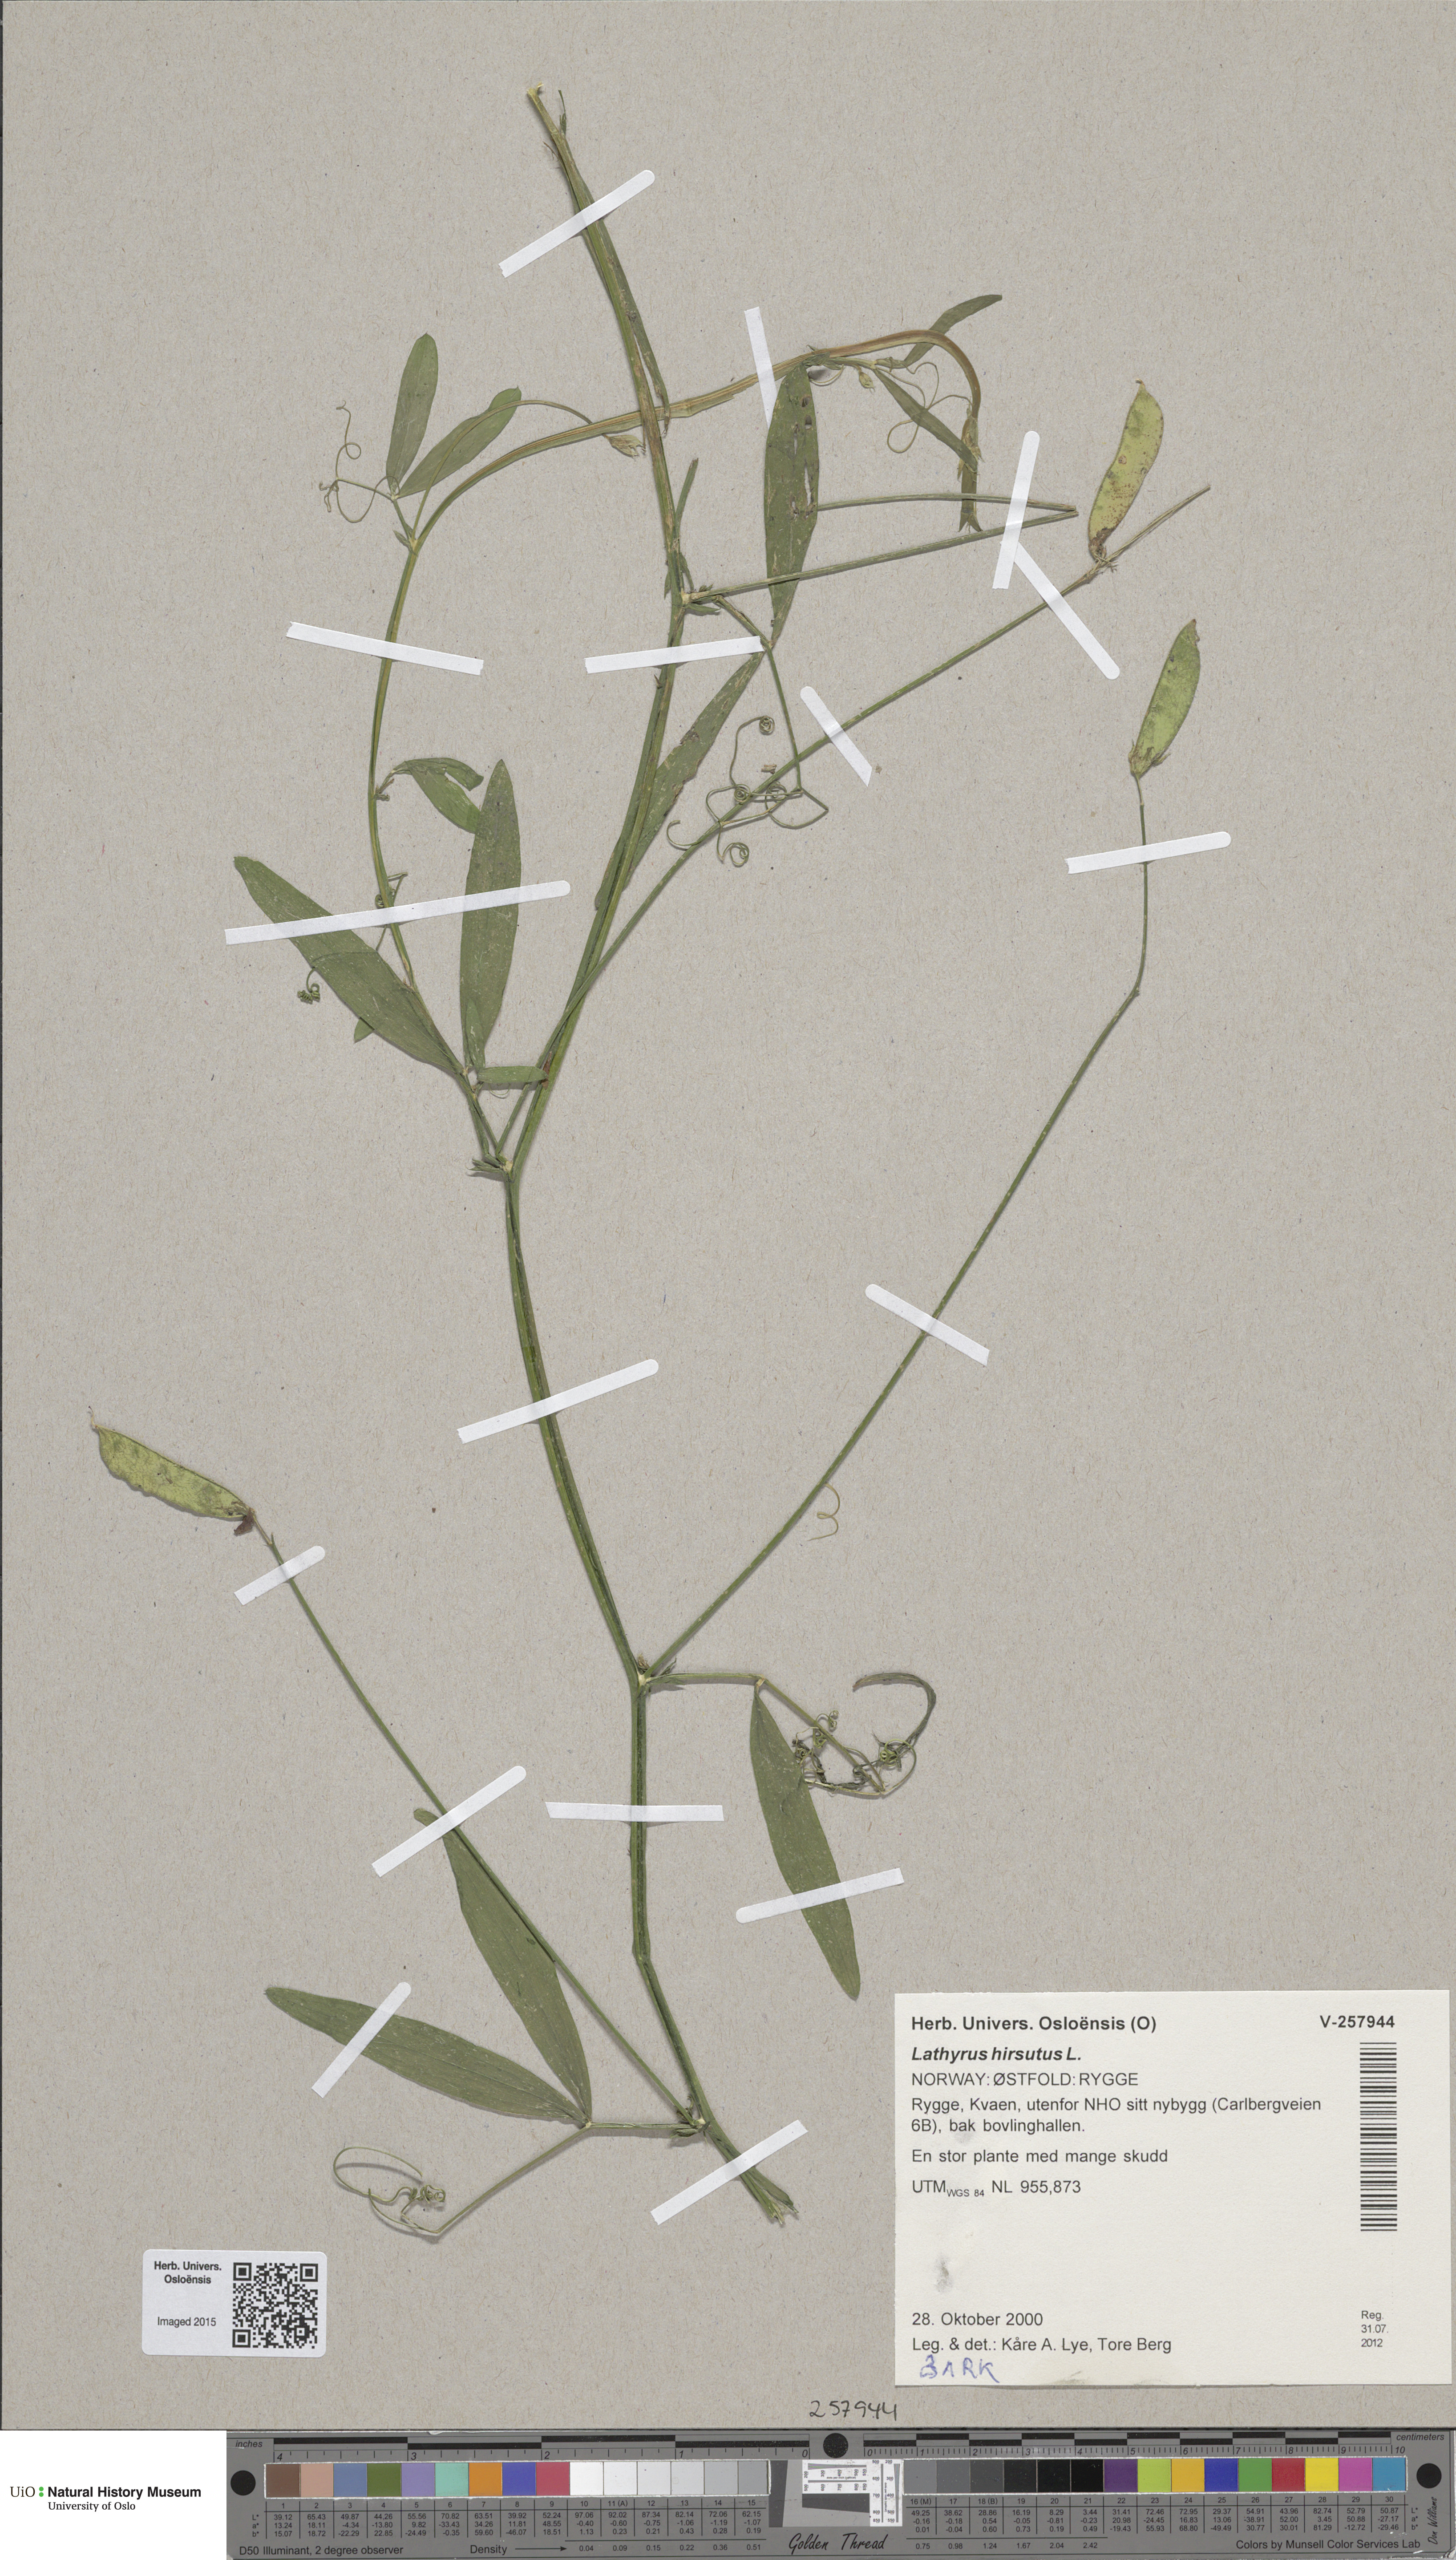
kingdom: Plantae
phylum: Tracheophyta
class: Magnoliopsida
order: Fabales
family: Fabaceae
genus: Lathyrus
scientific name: Lathyrus hirsutus
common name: Hairy vetchling
